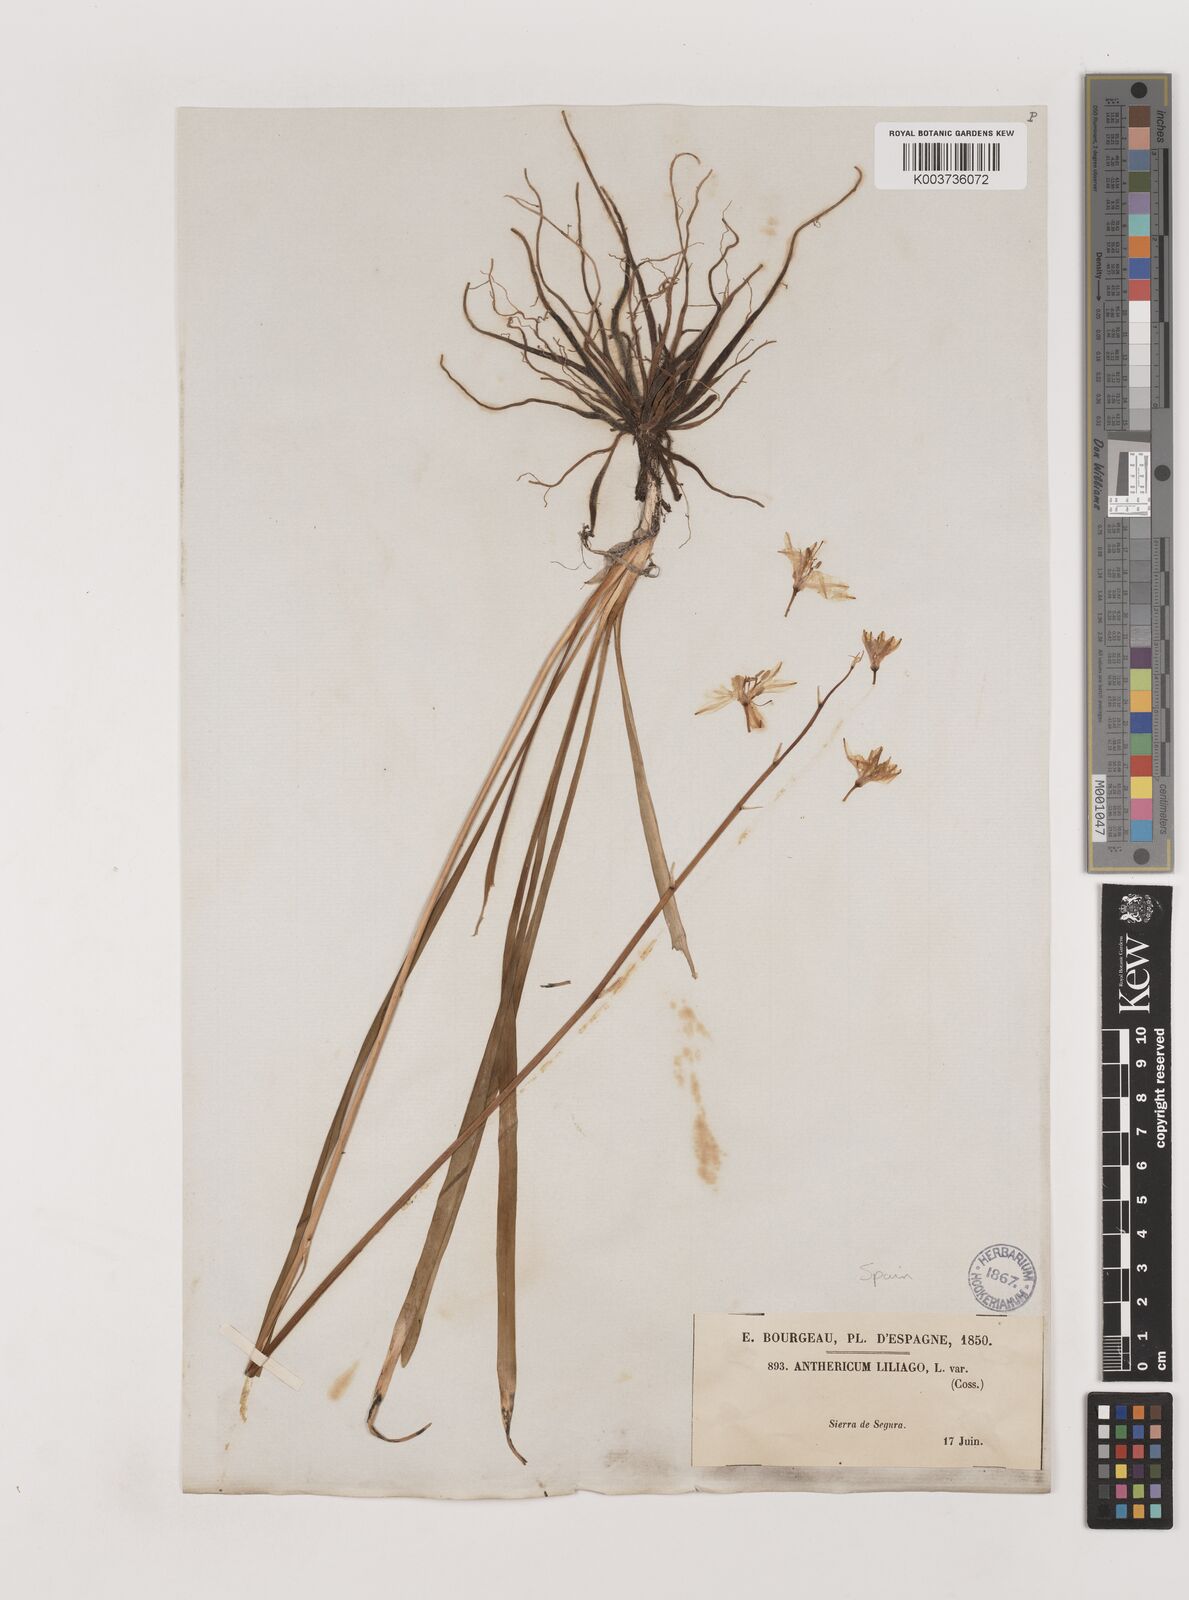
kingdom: Plantae
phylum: Tracheophyta
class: Liliopsida
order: Asparagales
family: Asparagaceae
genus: Anthericum
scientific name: Anthericum liliago
